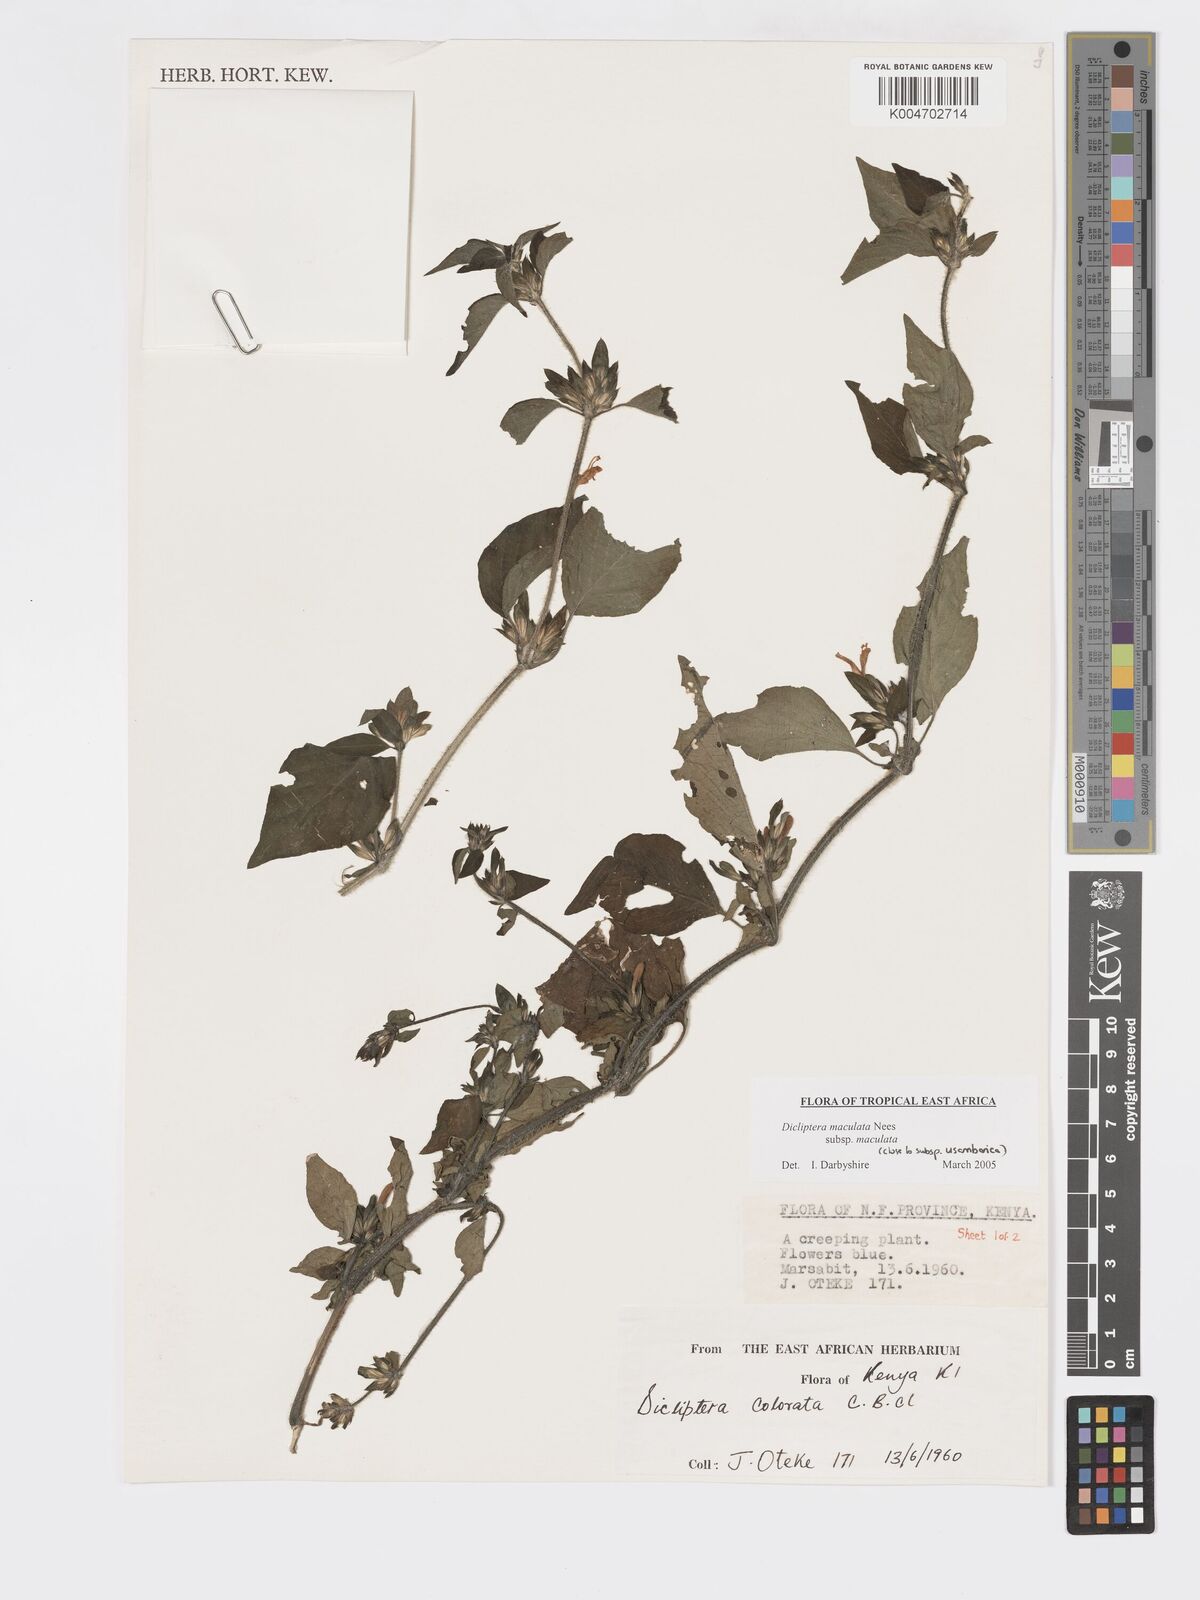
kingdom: Plantae
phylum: Tracheophyta
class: Magnoliopsida
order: Lamiales
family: Acanthaceae
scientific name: Acanthaceae
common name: Acanthaceae
